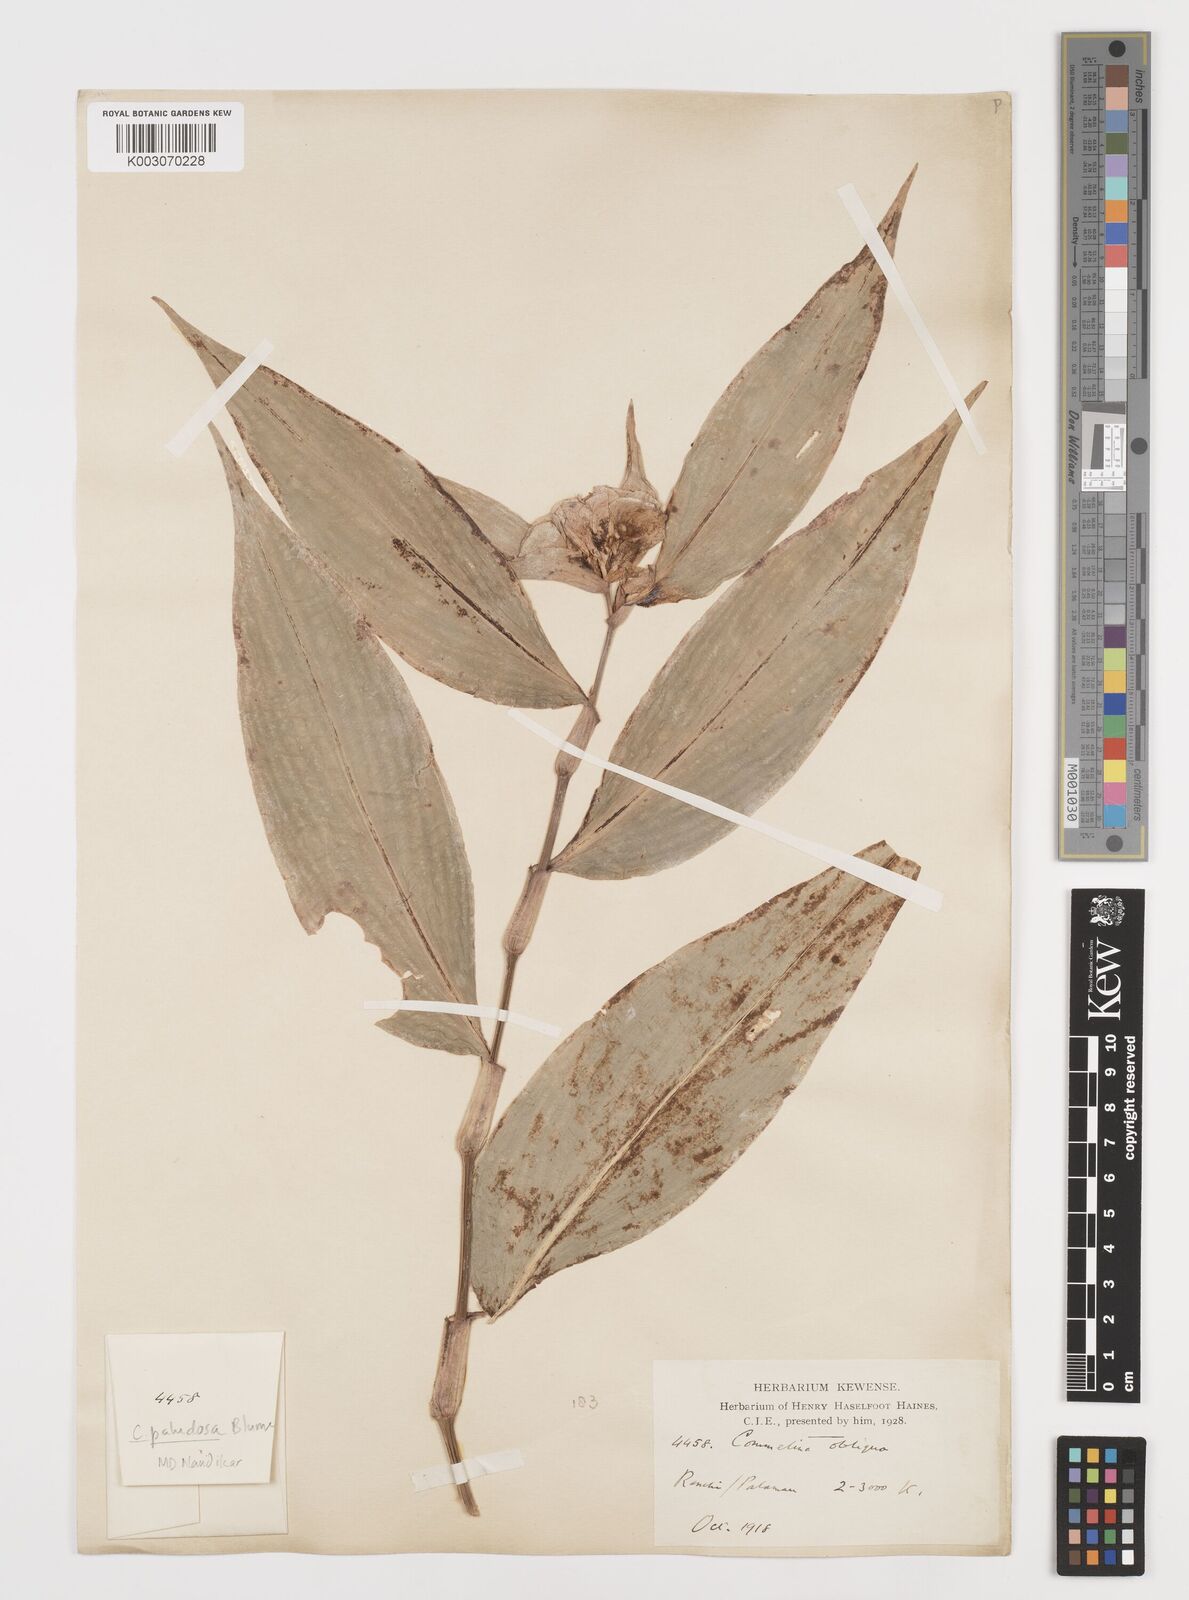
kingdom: Plantae
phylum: Tracheophyta
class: Liliopsida
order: Commelinales
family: Commelinaceae
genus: Commelina
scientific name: Commelina paludosa
